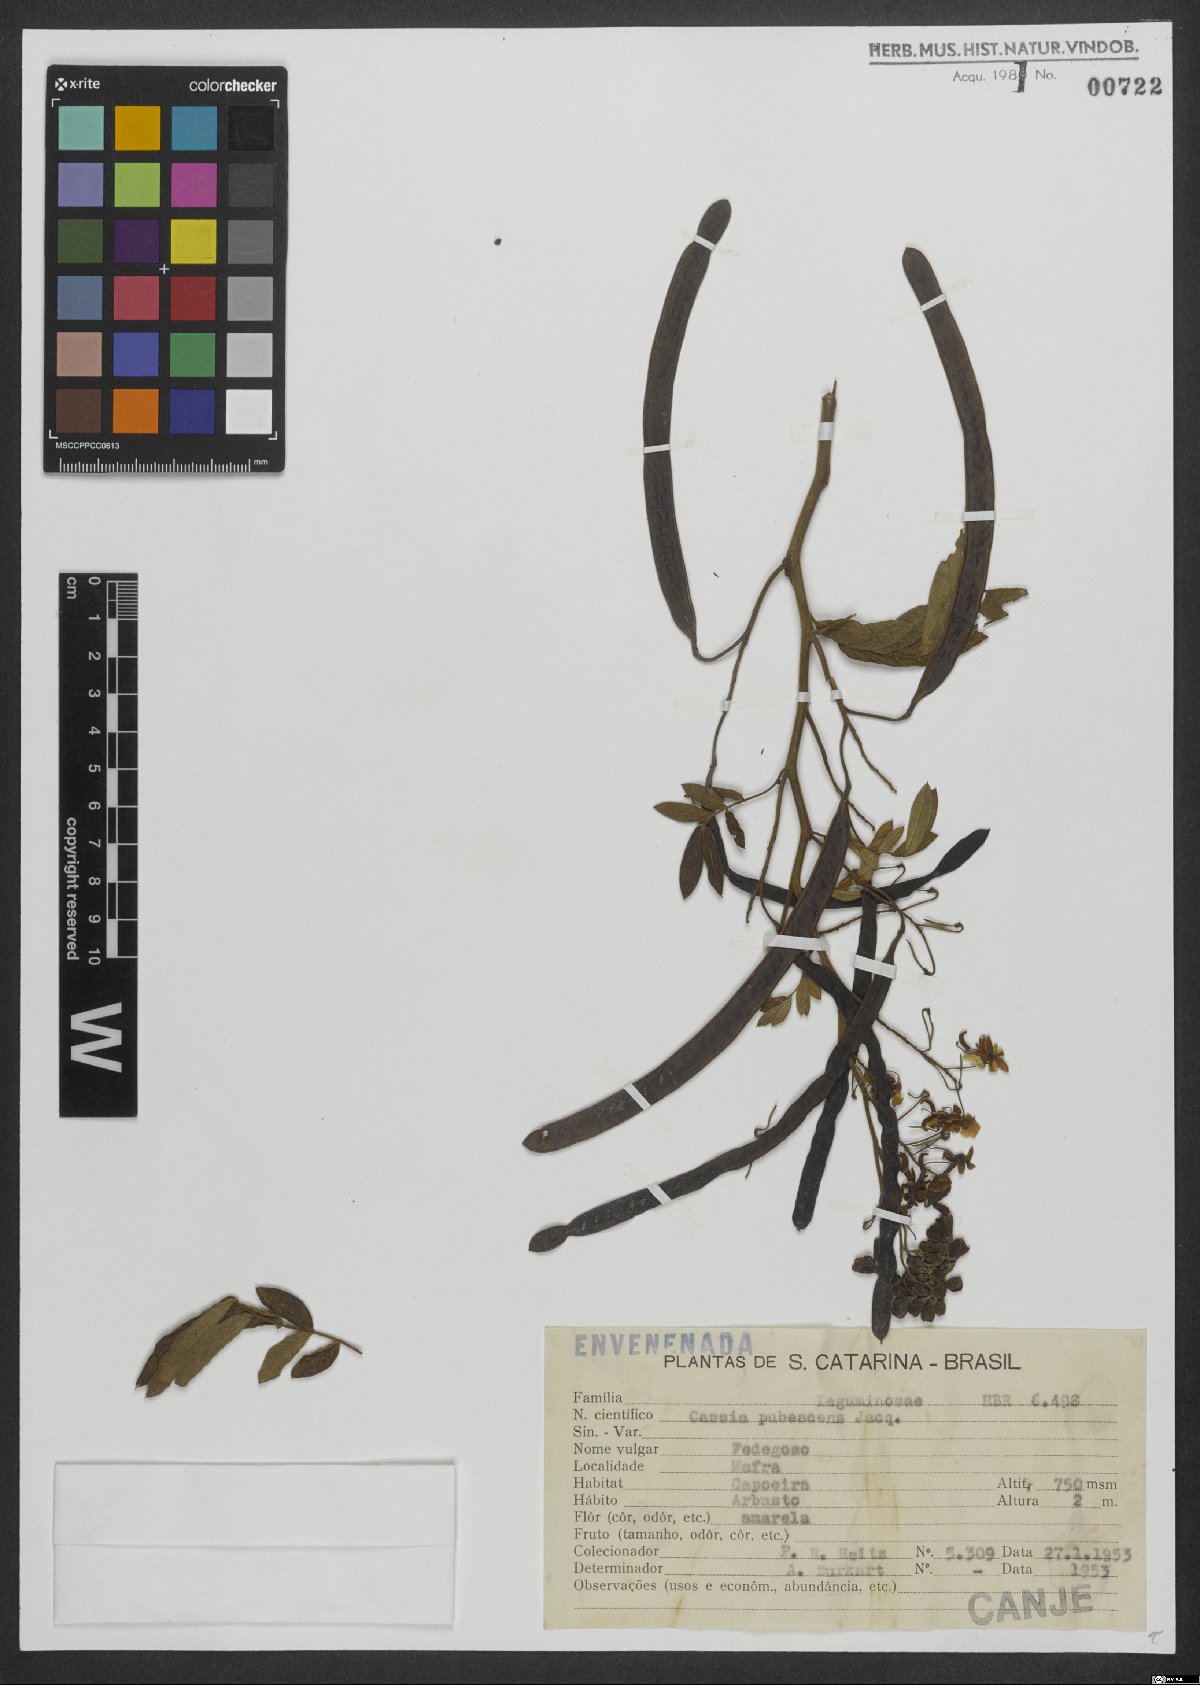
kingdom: Plantae
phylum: Tracheophyta
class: Magnoliopsida
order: Fabales
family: Fabaceae
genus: Senna
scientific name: Senna hirsuta
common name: Woolly senna
